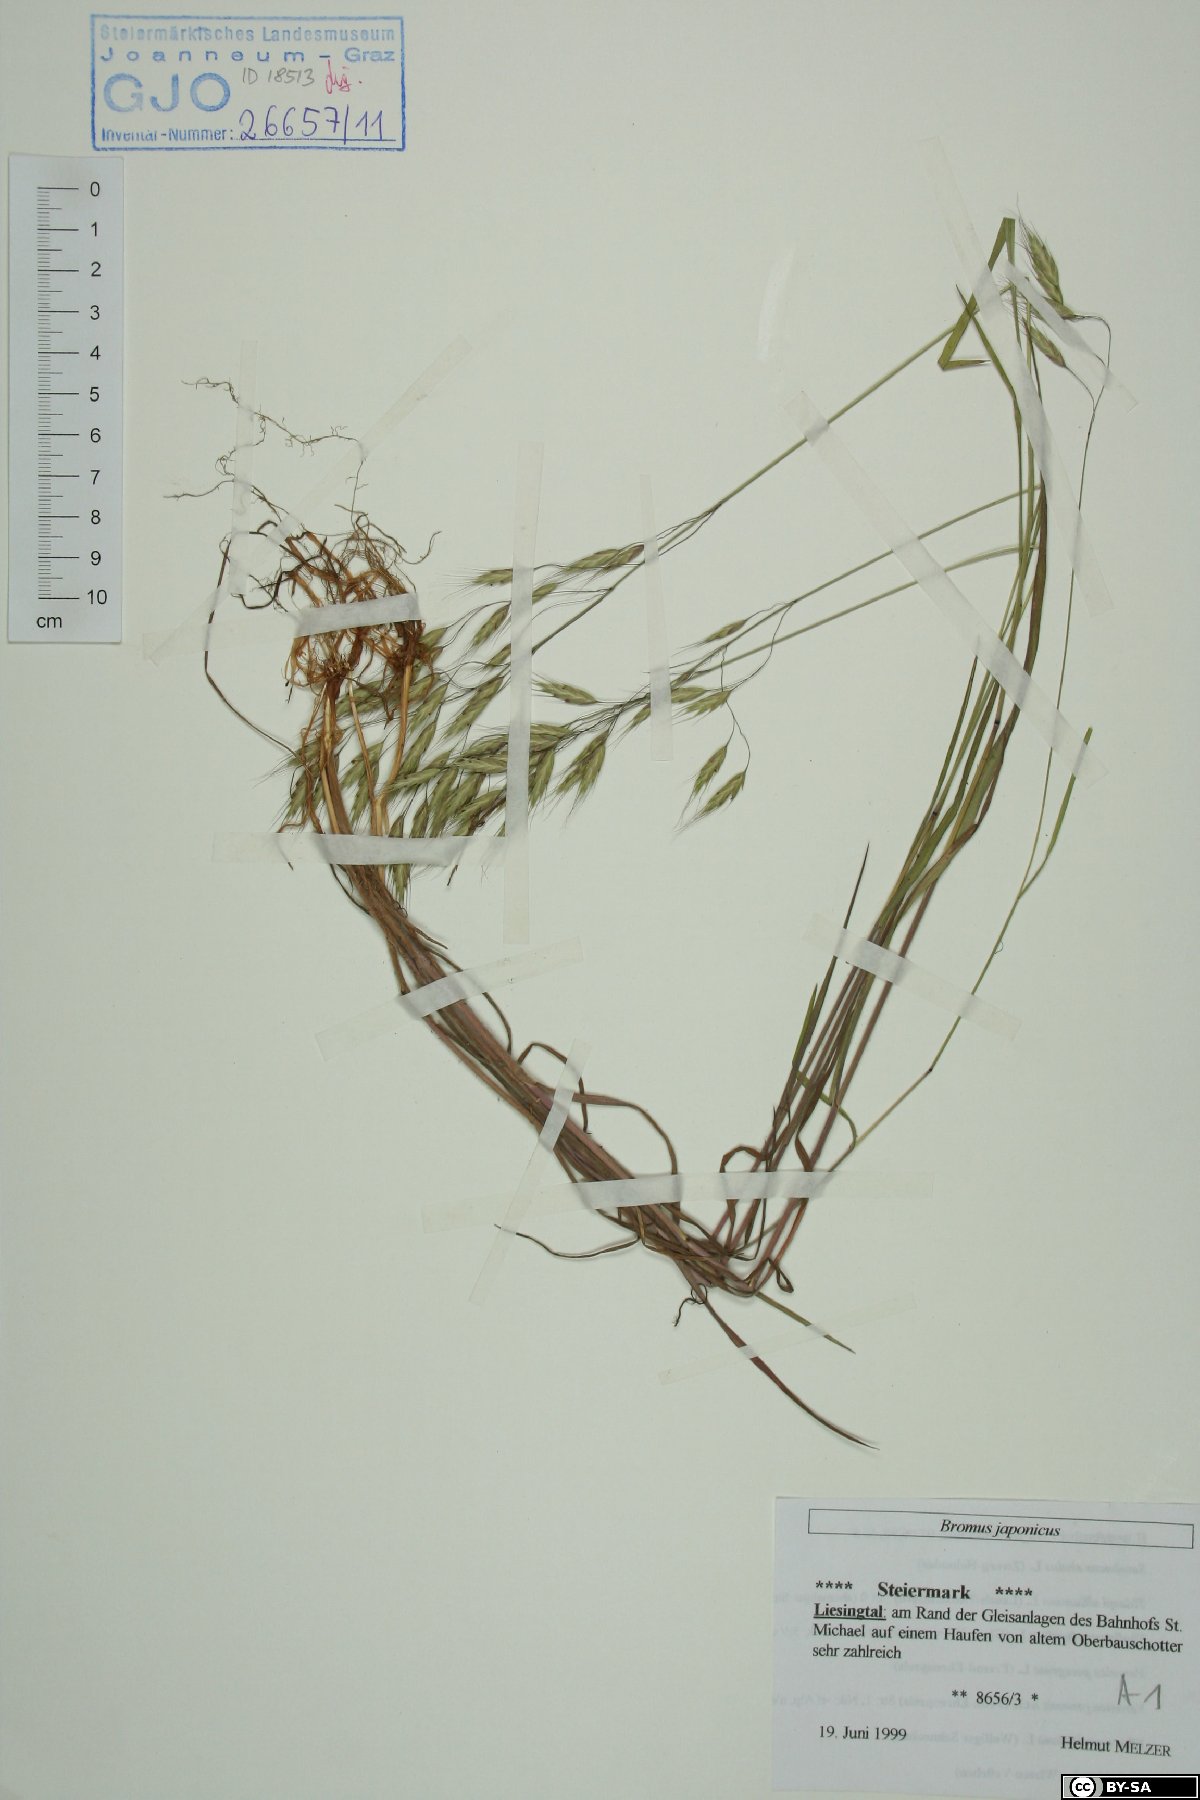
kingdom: Plantae
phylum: Tracheophyta
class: Liliopsida
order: Poales
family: Poaceae
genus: Bromus
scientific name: Bromus japonicus
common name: Japanese brome
